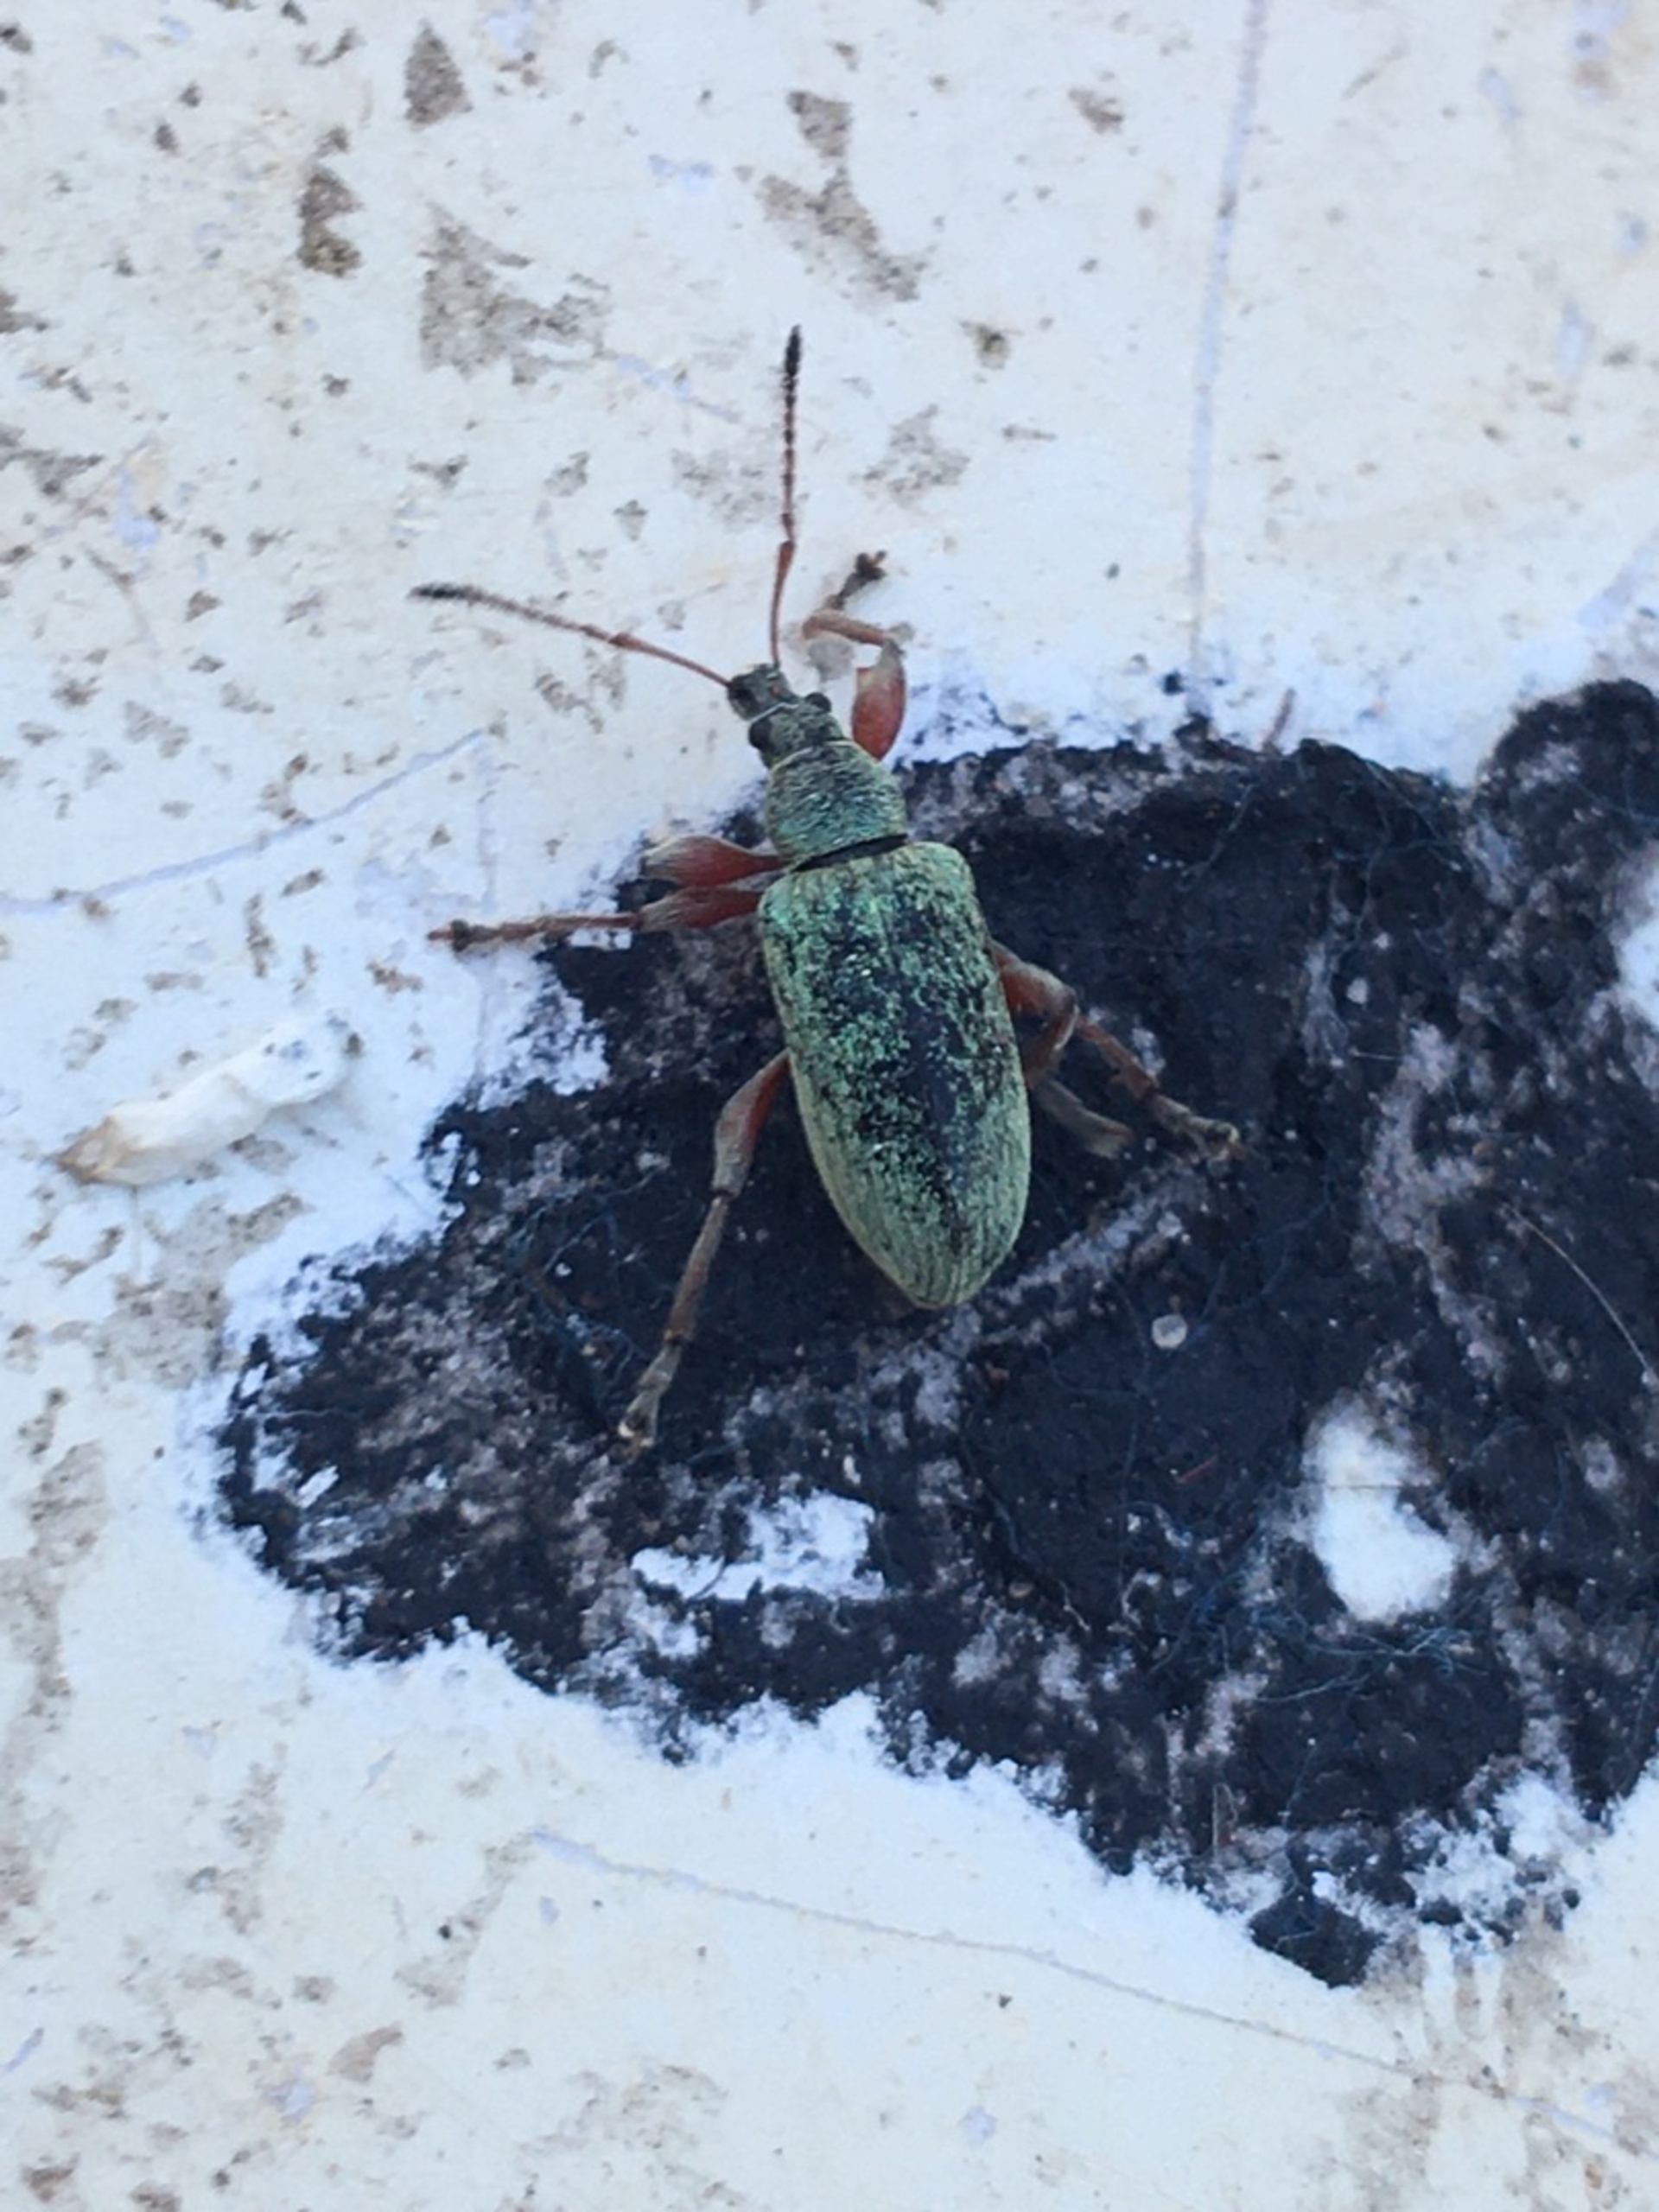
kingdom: Animalia
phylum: Arthropoda
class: Insecta
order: Coleoptera
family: Curculionidae
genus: Phyllobius
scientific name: Phyllobius glaucus
